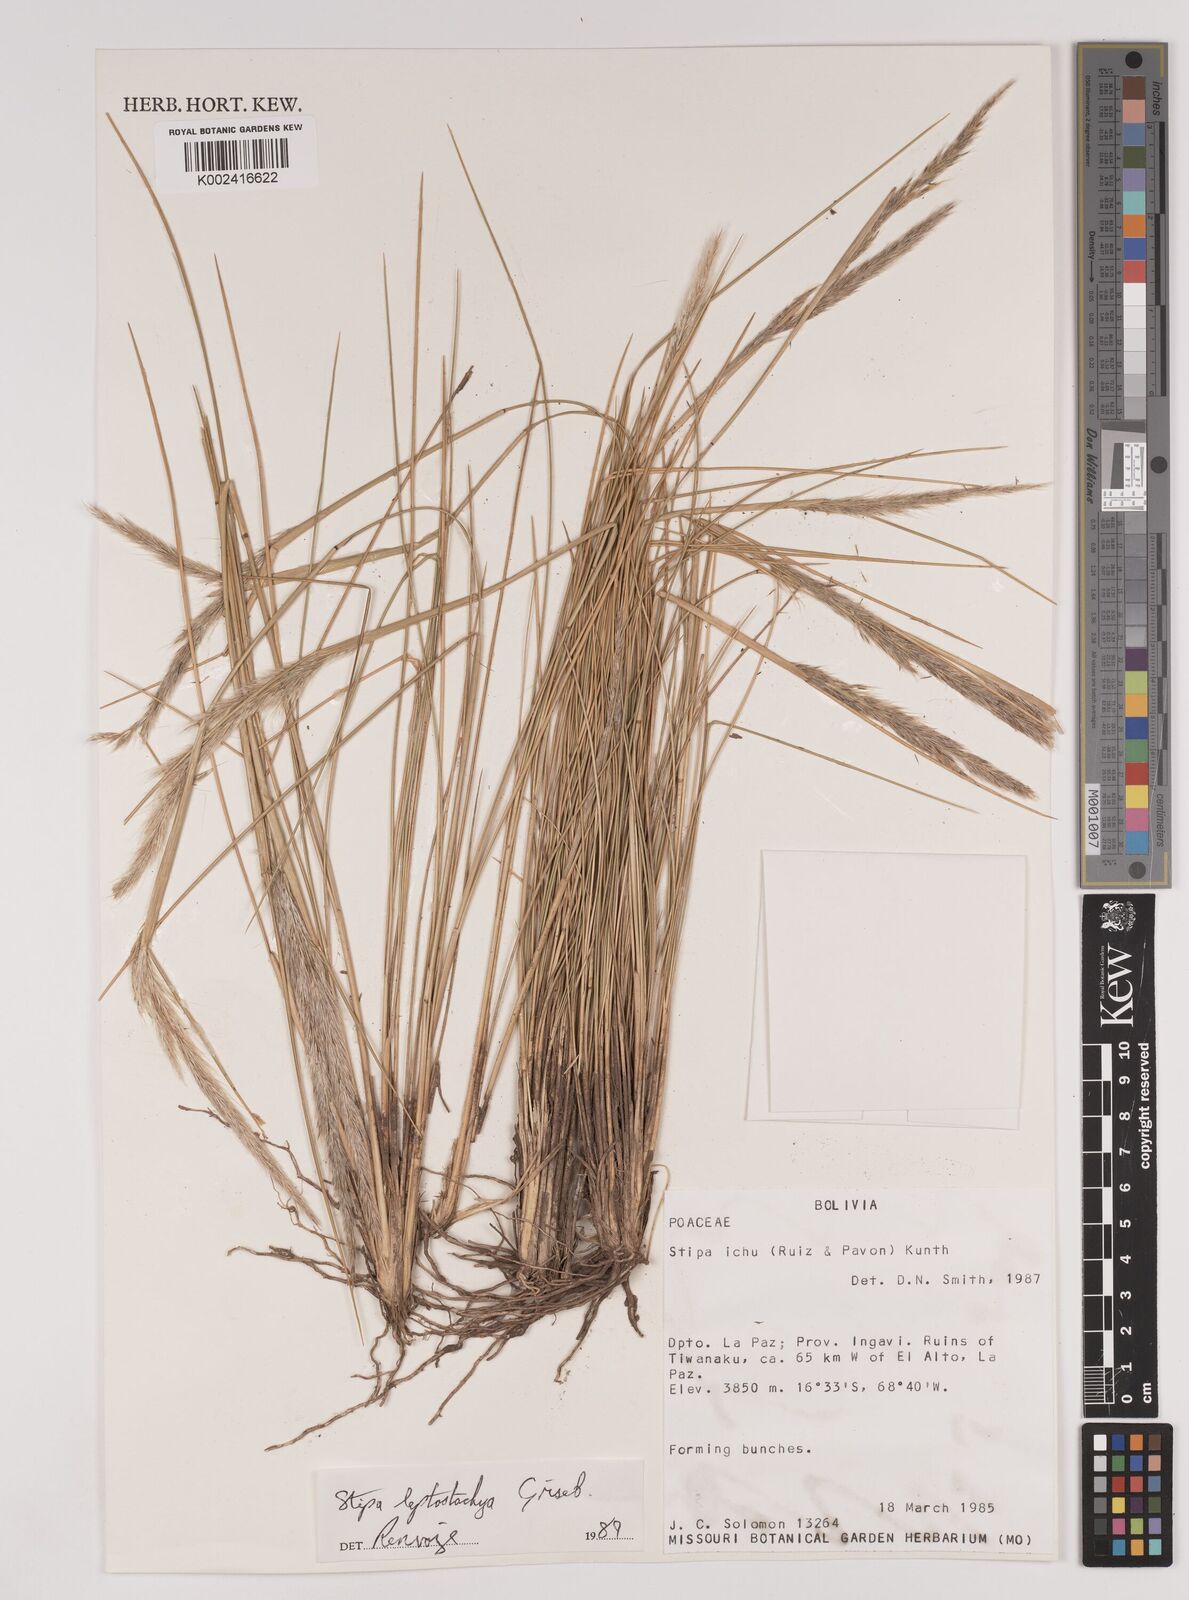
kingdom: Plantae
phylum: Tracheophyta
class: Liliopsida
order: Poales
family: Poaceae
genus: Jarava
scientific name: Jarava leptostachya
